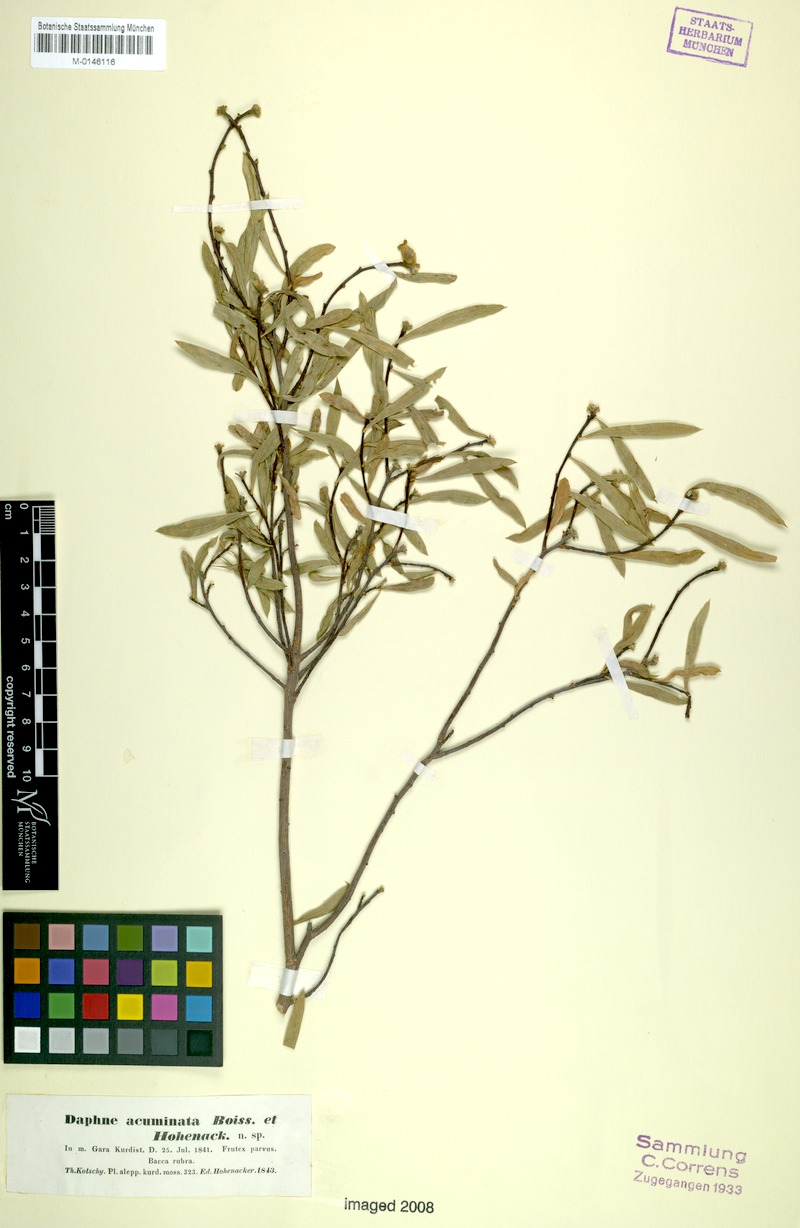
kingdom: Plantae
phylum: Tracheophyta
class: Magnoliopsida
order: Malvales
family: Thymelaeaceae
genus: Daphne
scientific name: Daphne mucronata
